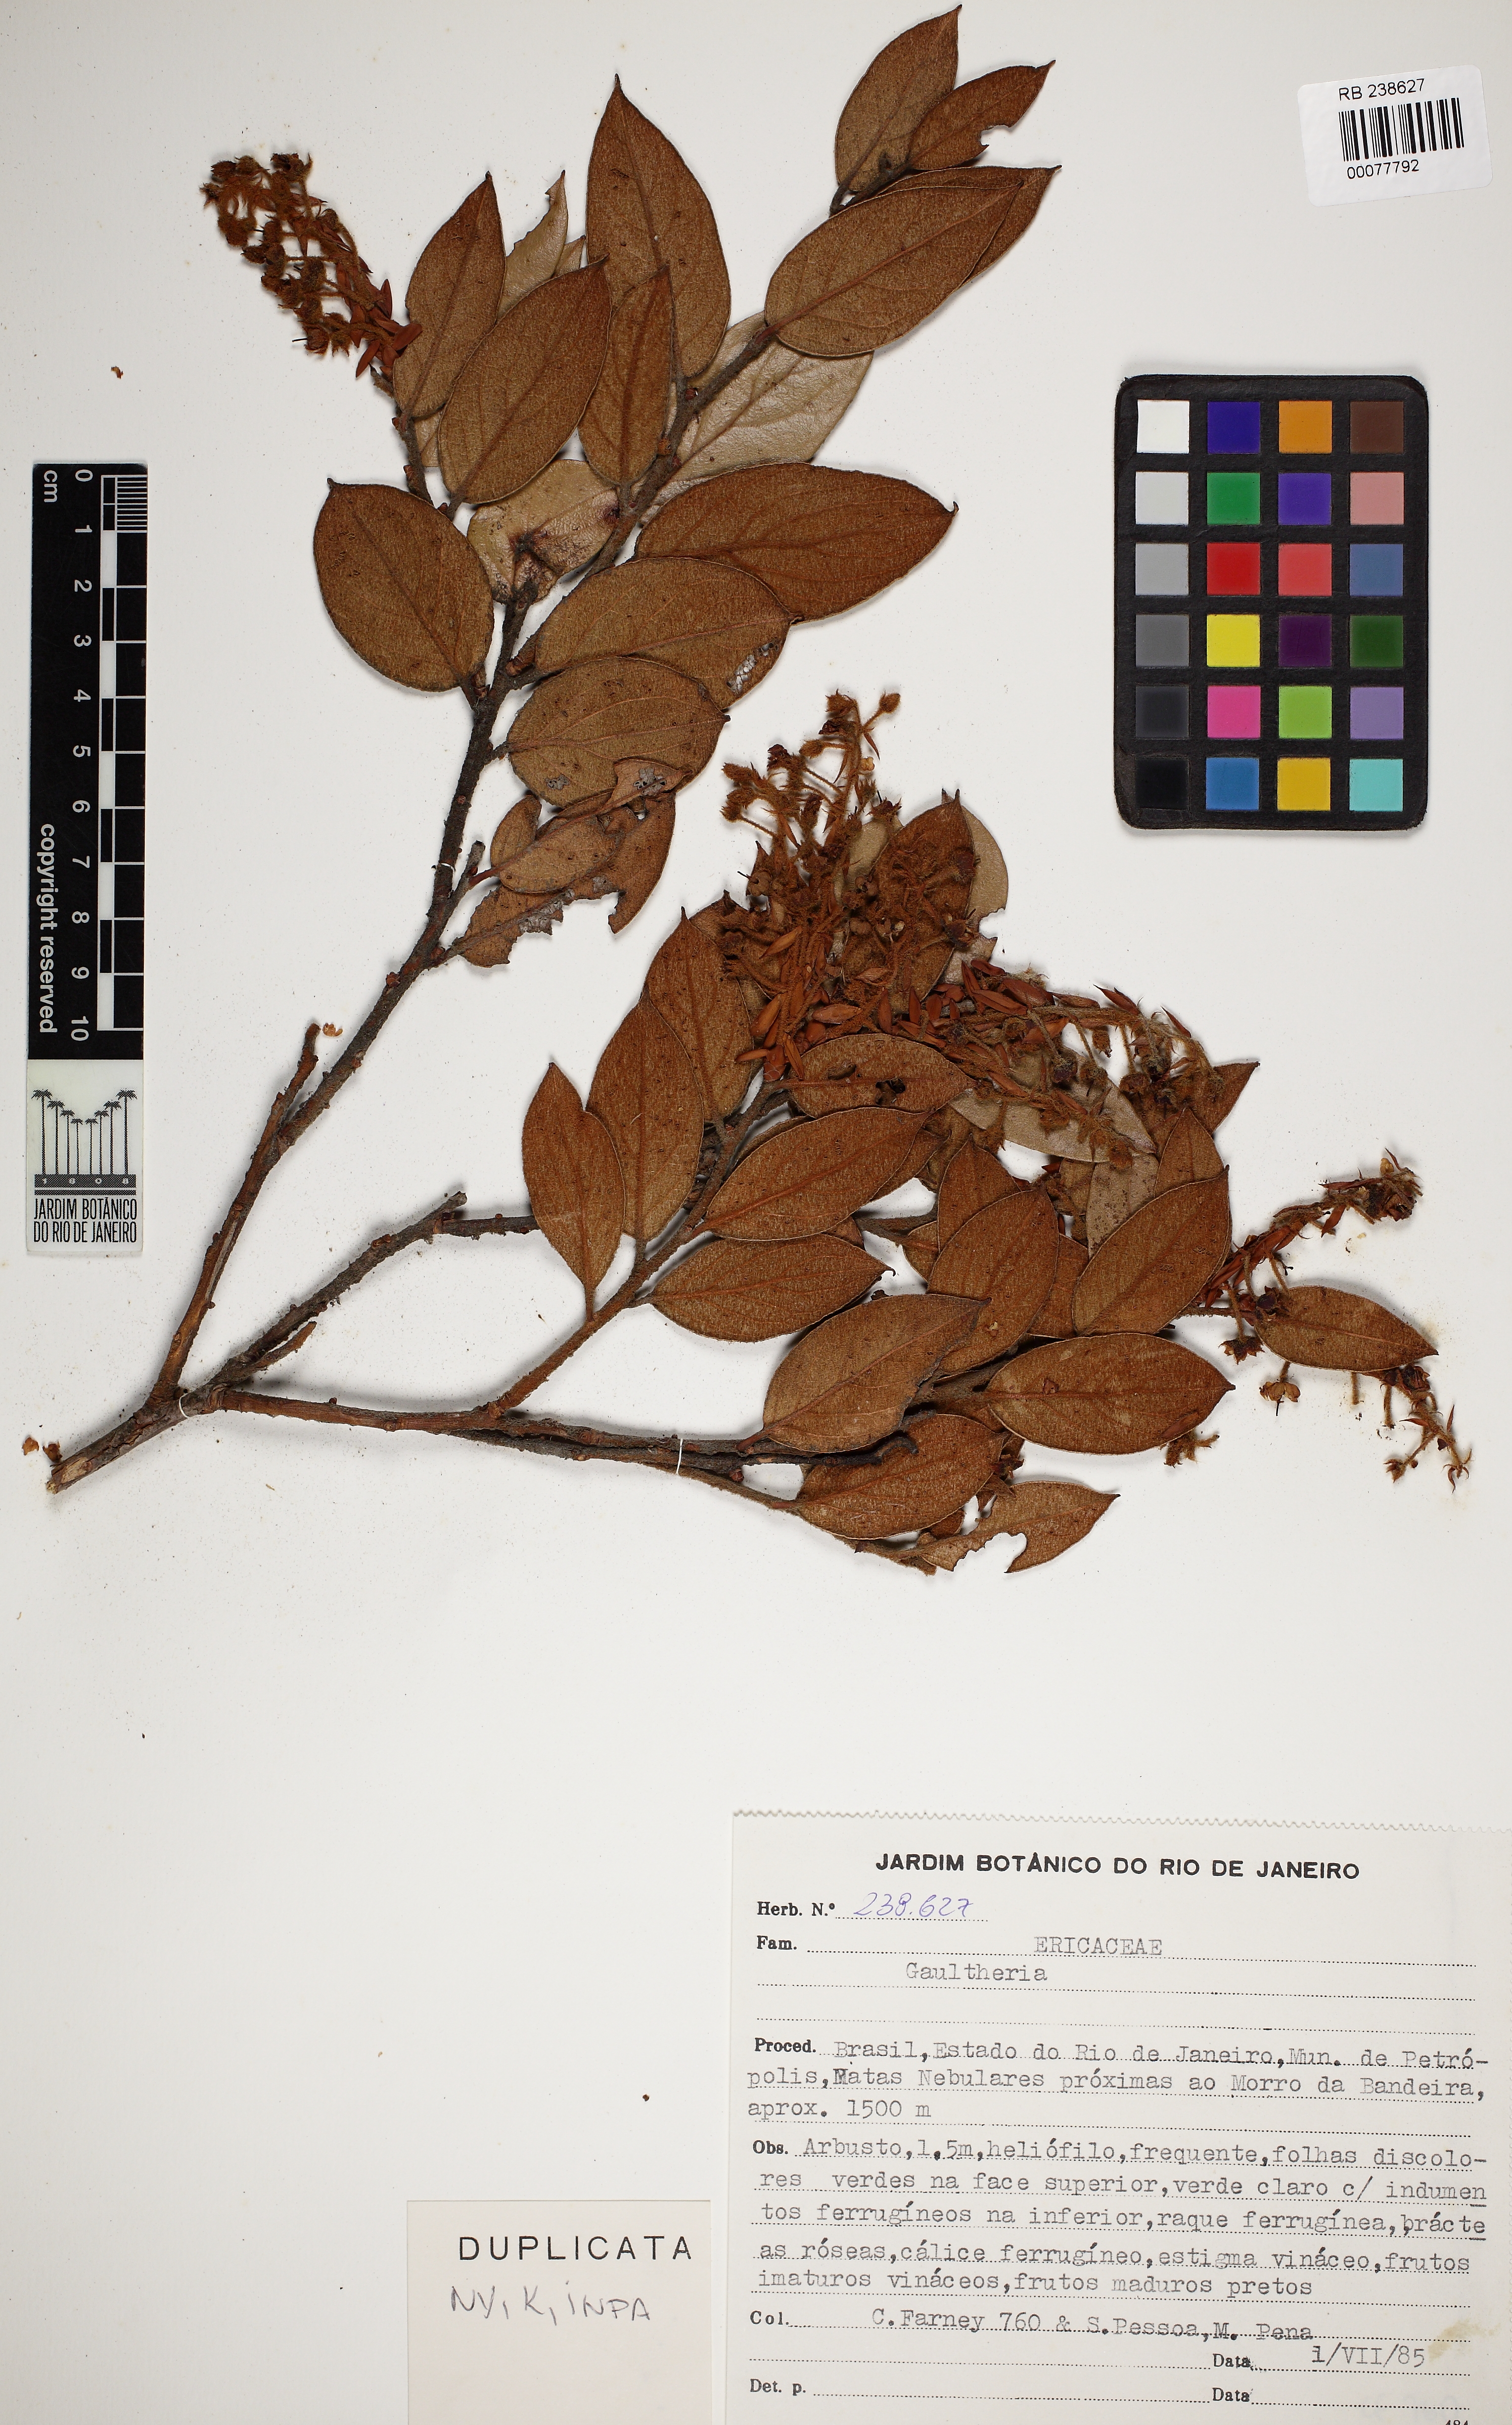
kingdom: Plantae
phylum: Tracheophyta
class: Magnoliopsida
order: Ericales
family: Ericaceae
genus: Gaultheria
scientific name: Gaultheria eriophylla
